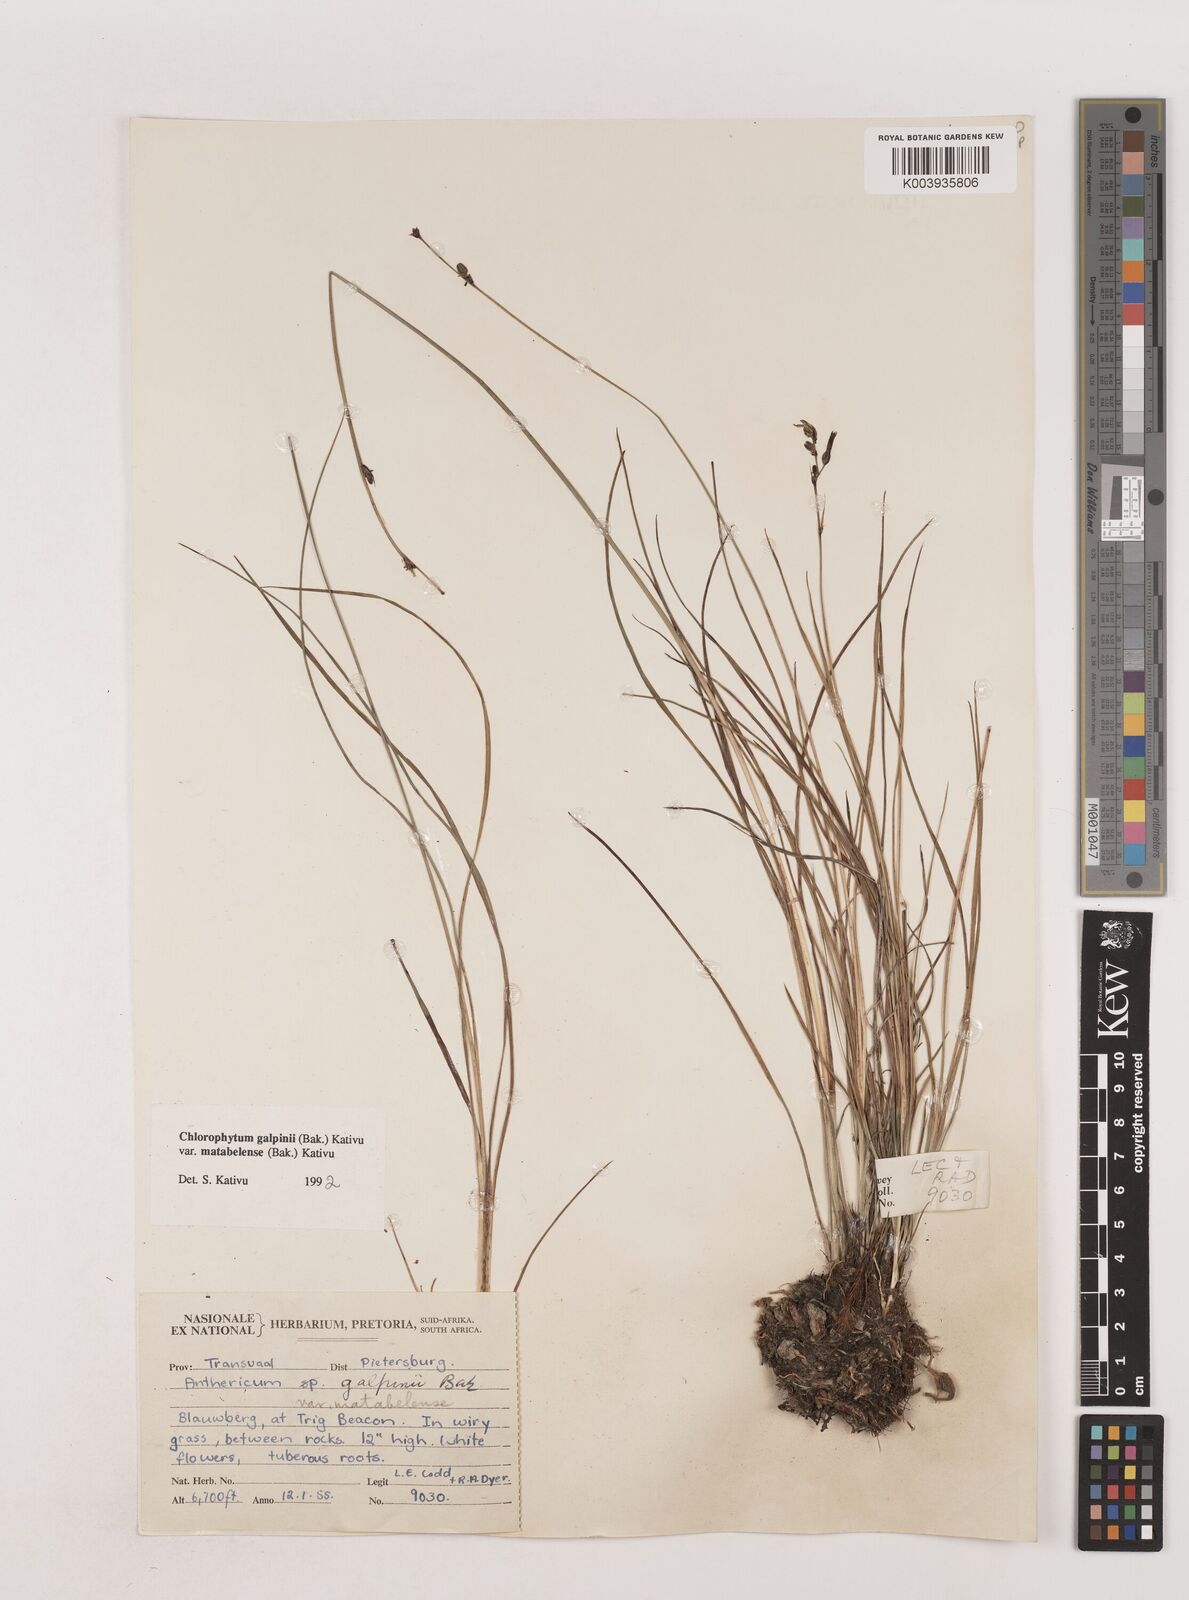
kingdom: Plantae
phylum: Tracheophyta
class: Liliopsida
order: Asparagales
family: Asparagaceae
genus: Chlorophytum
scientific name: Chlorophytum galpinii
